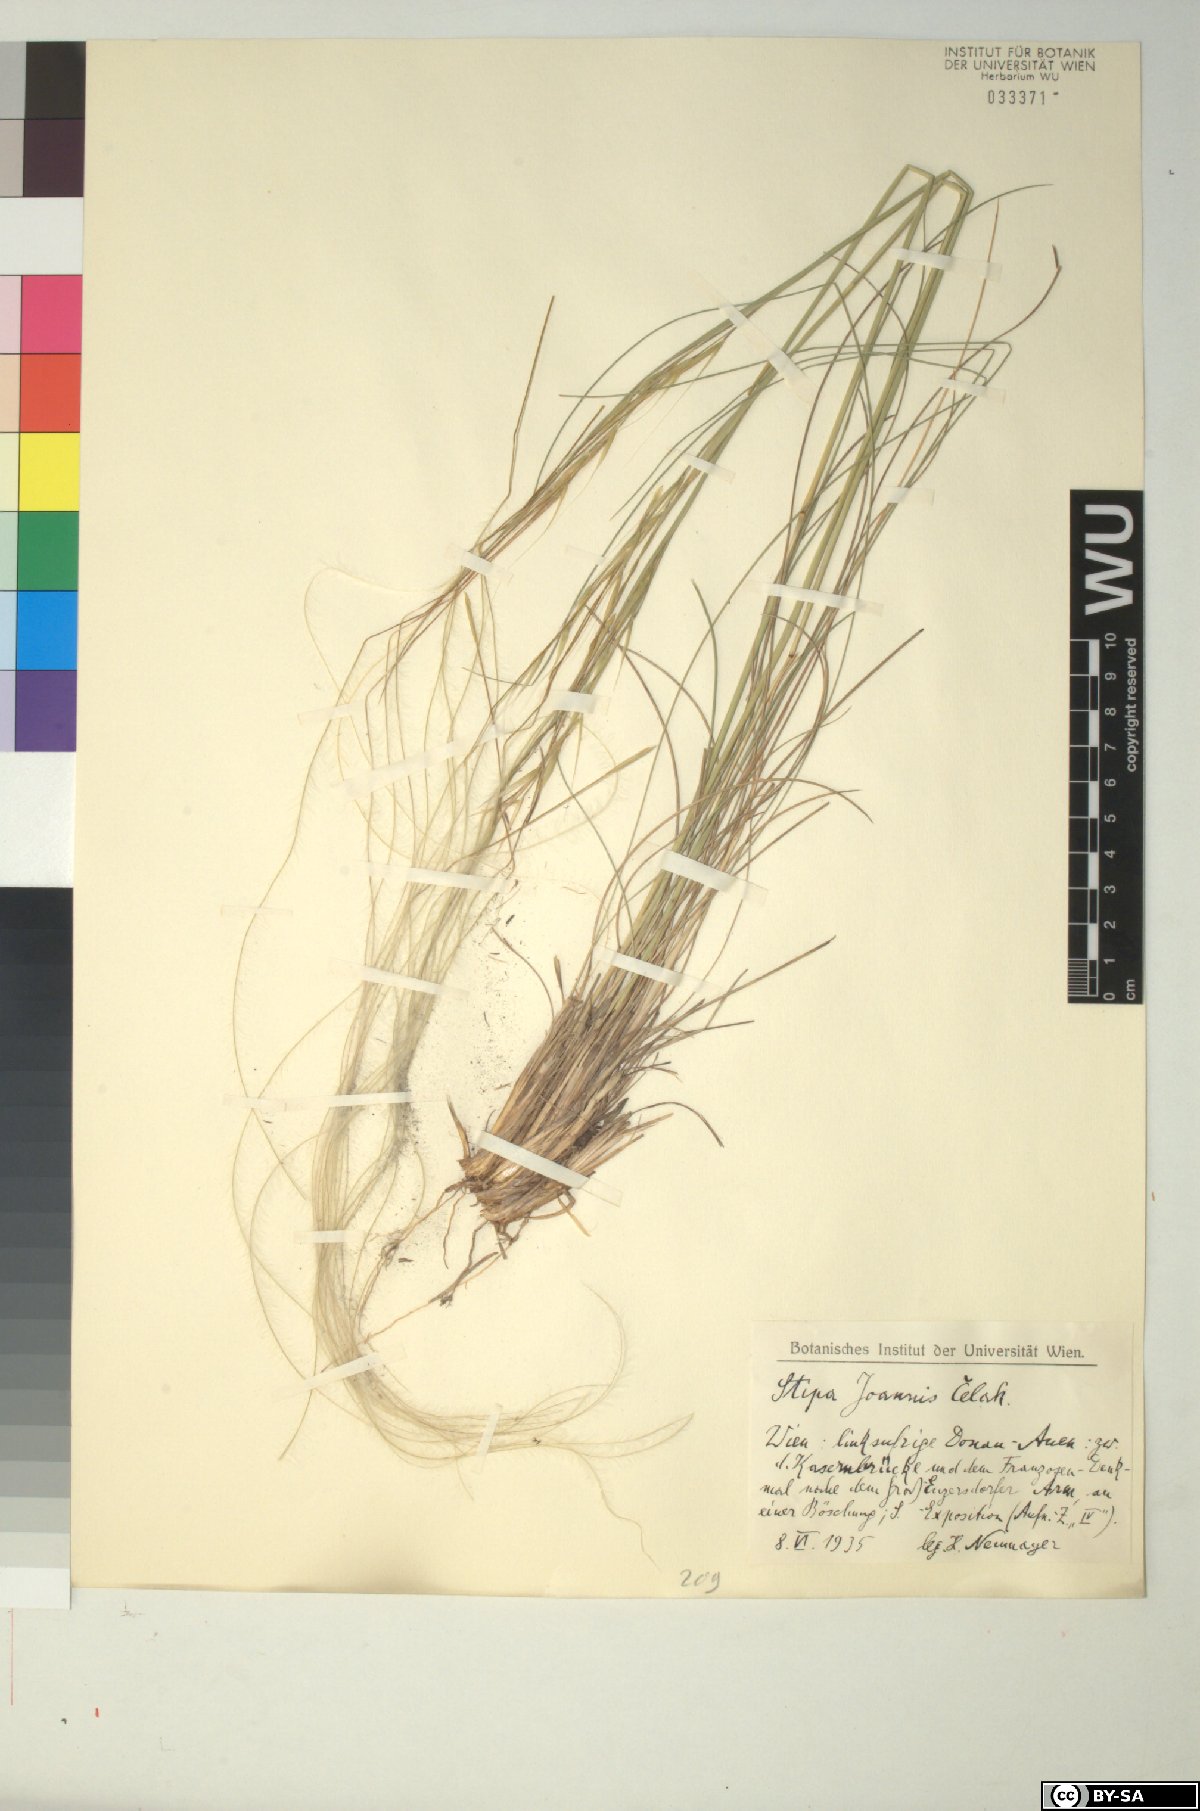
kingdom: Plantae
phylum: Tracheophyta
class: Liliopsida
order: Poales
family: Poaceae
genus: Stipa
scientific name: Stipa pennata
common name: European feather grass
